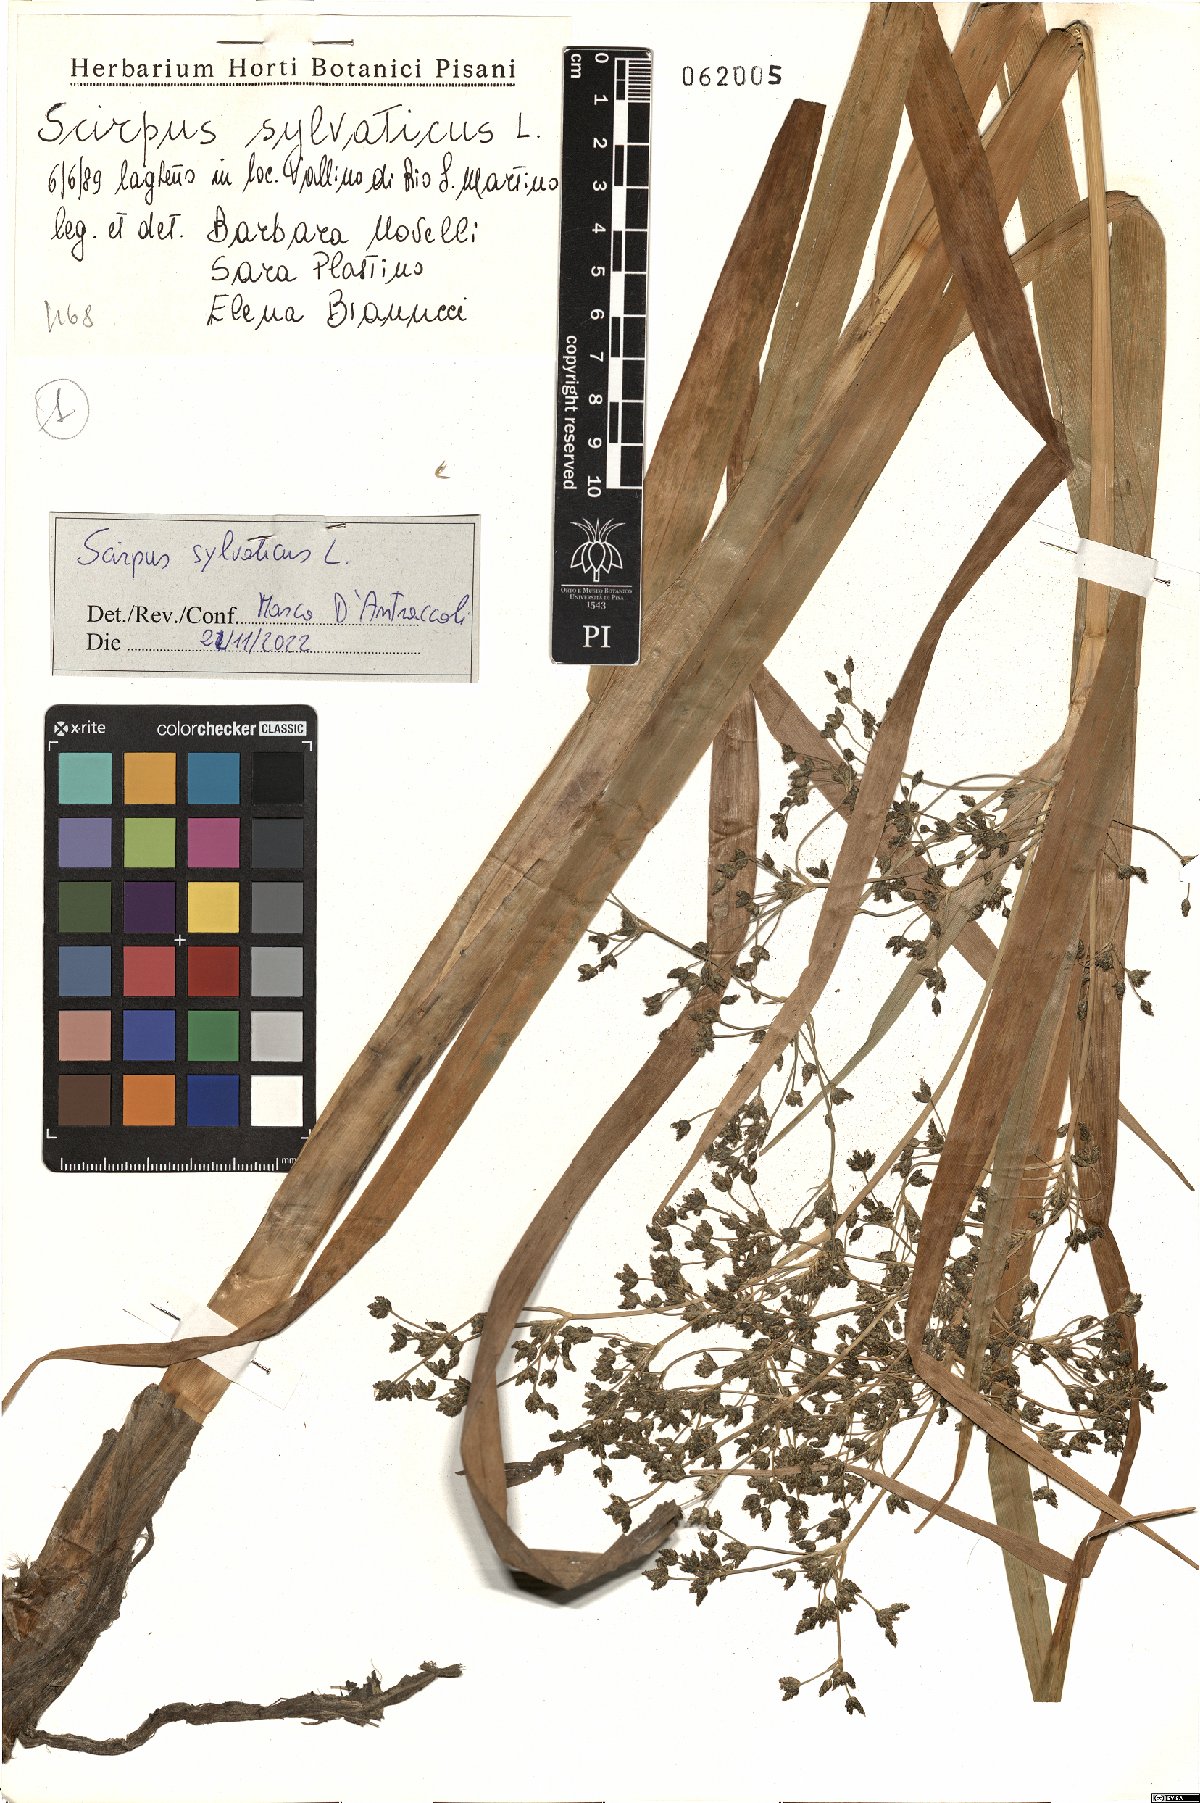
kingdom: Plantae
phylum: Tracheophyta
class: Liliopsida
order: Poales
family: Cyperaceae
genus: Scirpus
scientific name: Scirpus sylvaticus
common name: Wood club-rush
